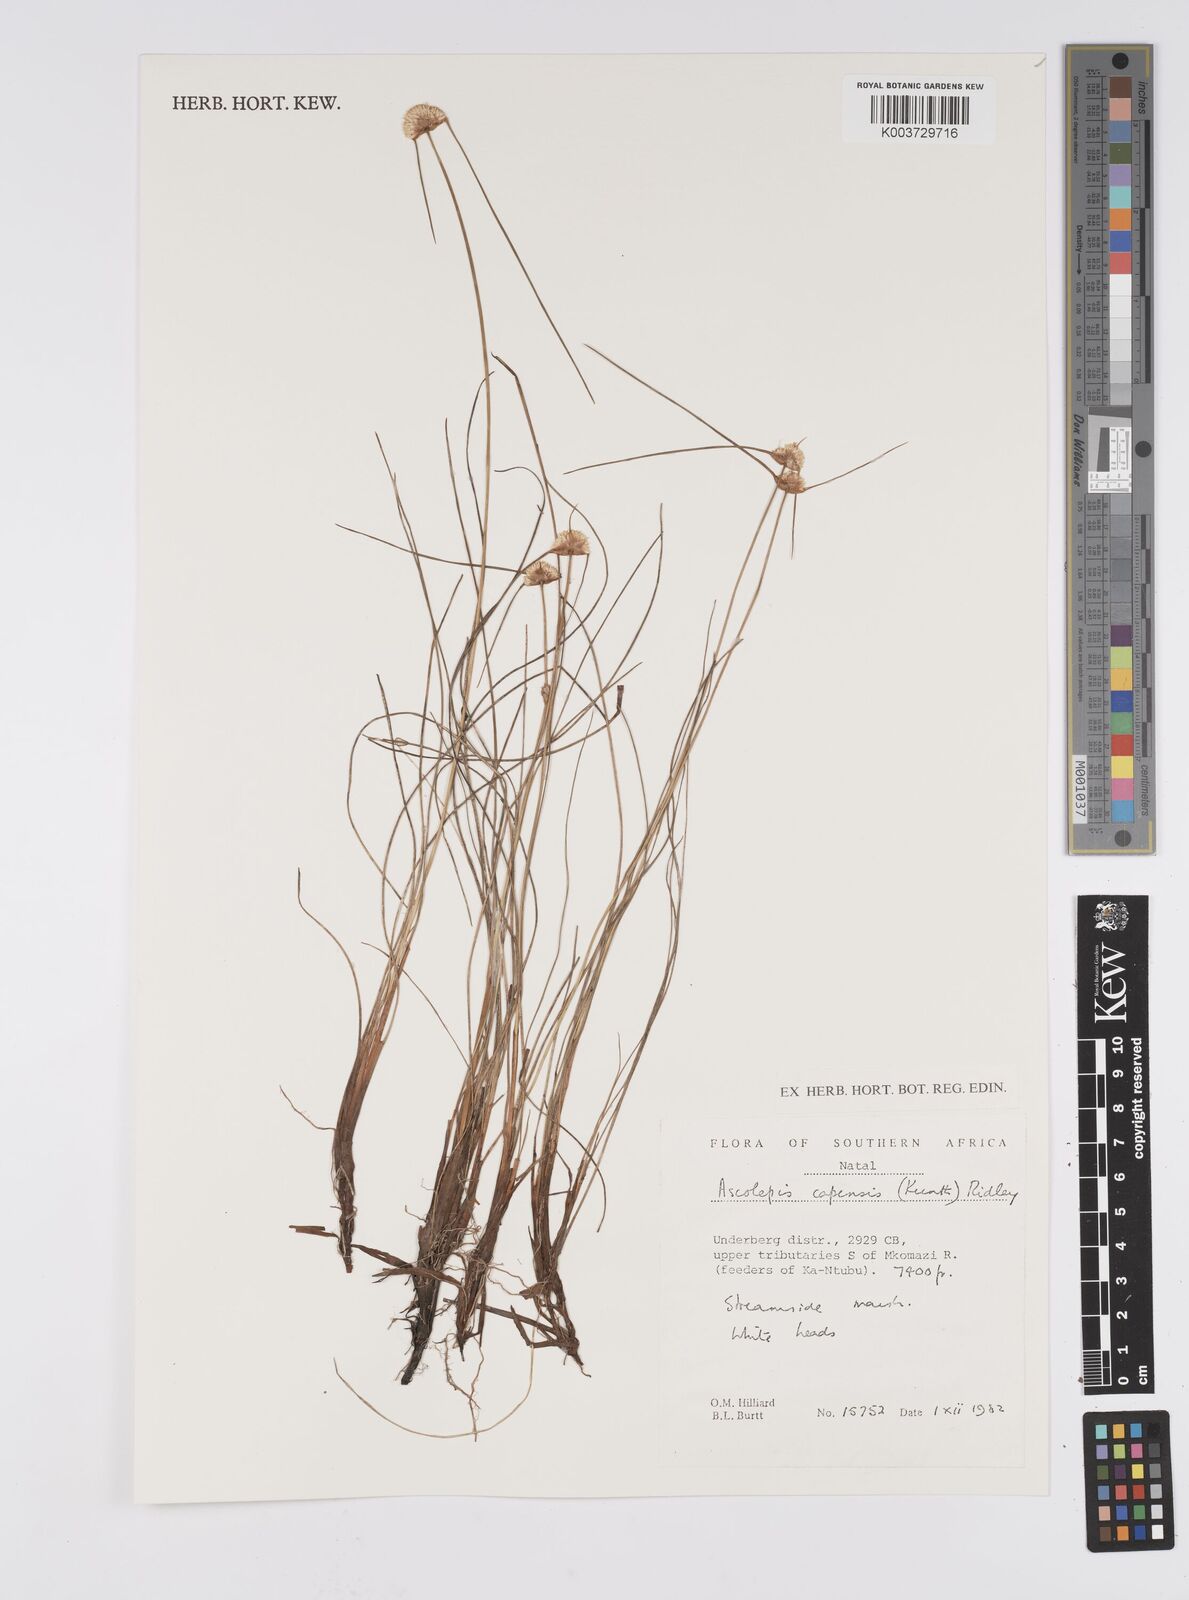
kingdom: Plantae
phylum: Tracheophyta
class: Liliopsida
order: Poales
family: Cyperaceae
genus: Cyperus
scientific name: Cyperus capensis
